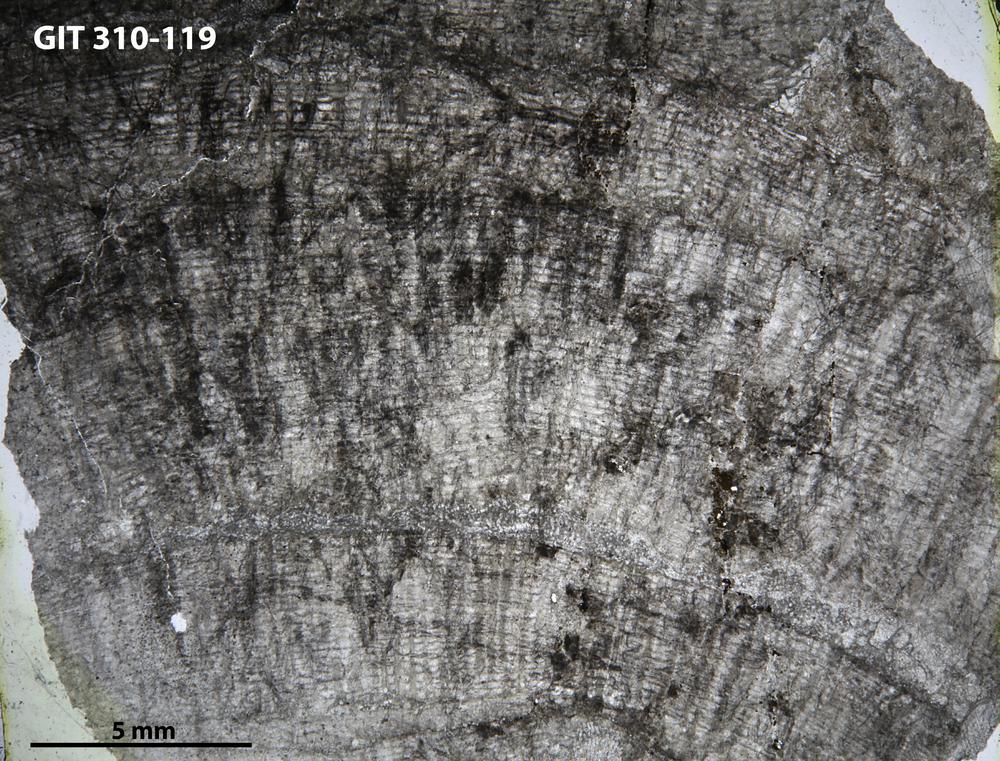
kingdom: Animalia
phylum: Porifera
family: Labechiidae
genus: Labechiella
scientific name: Labechiella regularis
